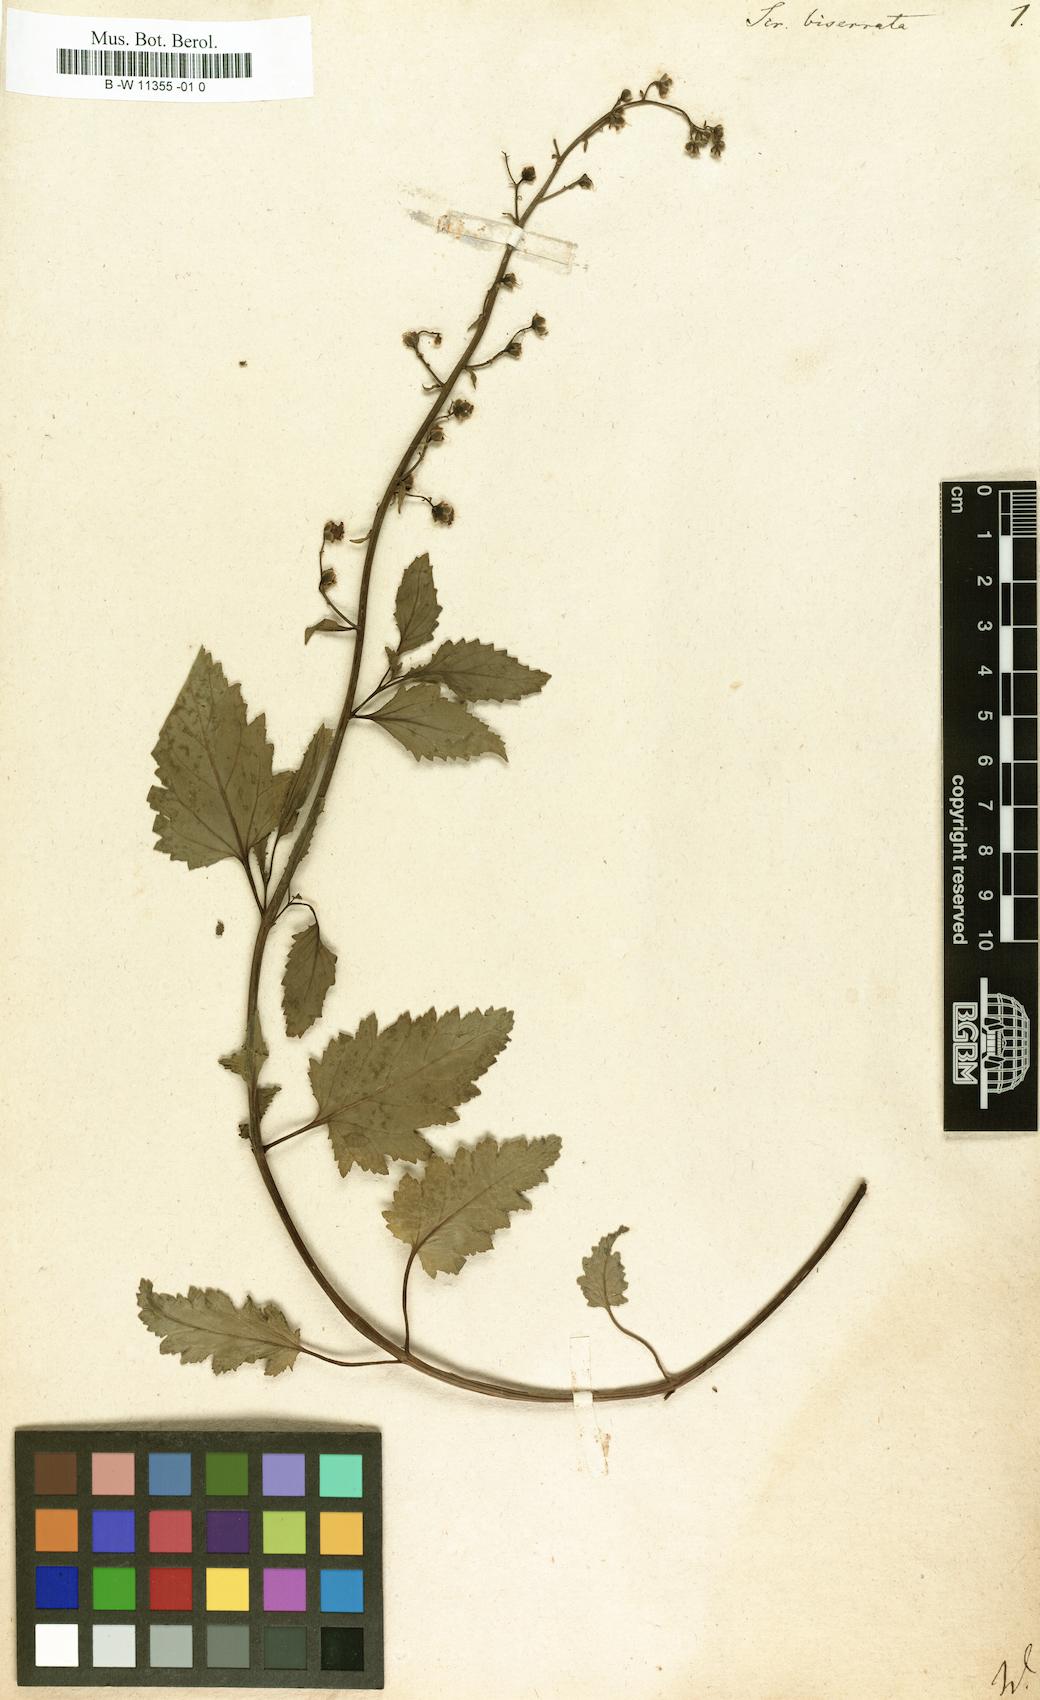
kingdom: Plantae
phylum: Tracheophyta
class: Magnoliopsida
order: Lamiales
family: Scrophulariaceae
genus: Scrophularia
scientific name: Scrophularia scorodonia
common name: Balm-leaved figwort
